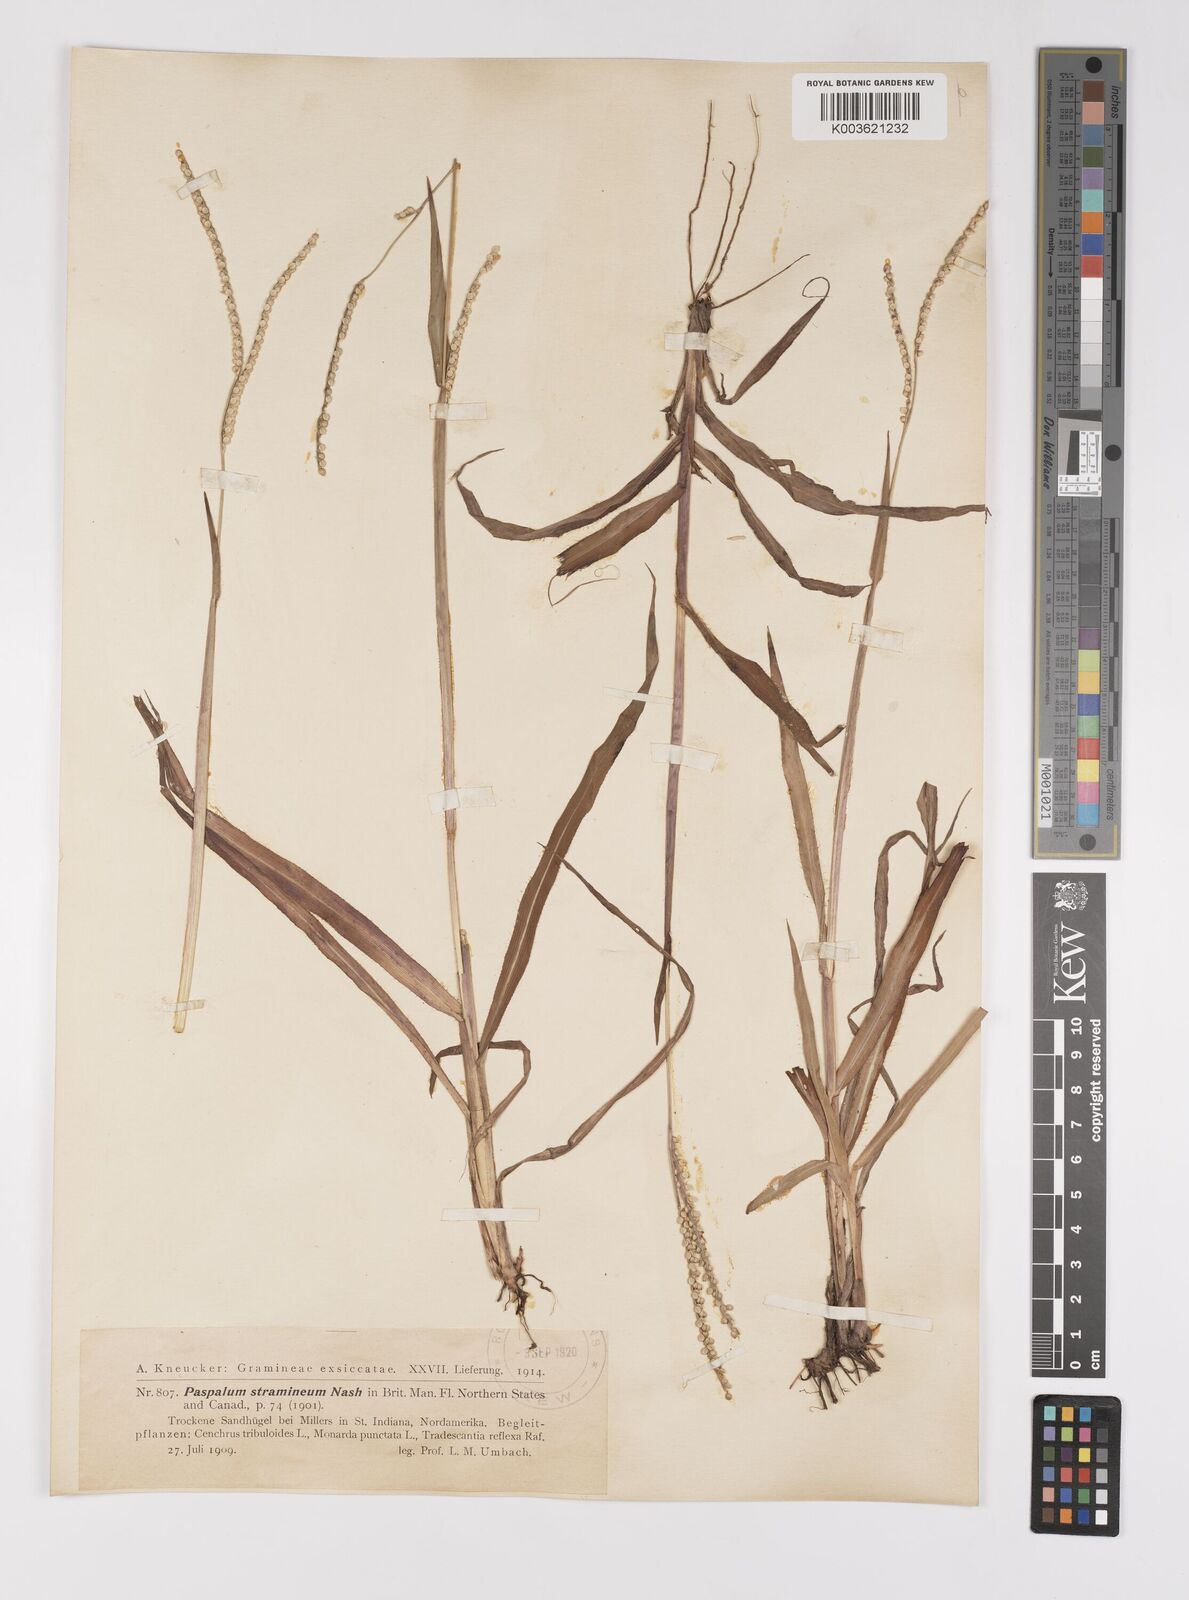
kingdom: Plantae
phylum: Tracheophyta
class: Liliopsida
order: Poales
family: Poaceae
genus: Paspalum
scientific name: Paspalum setaceum
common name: Slender paspalum
